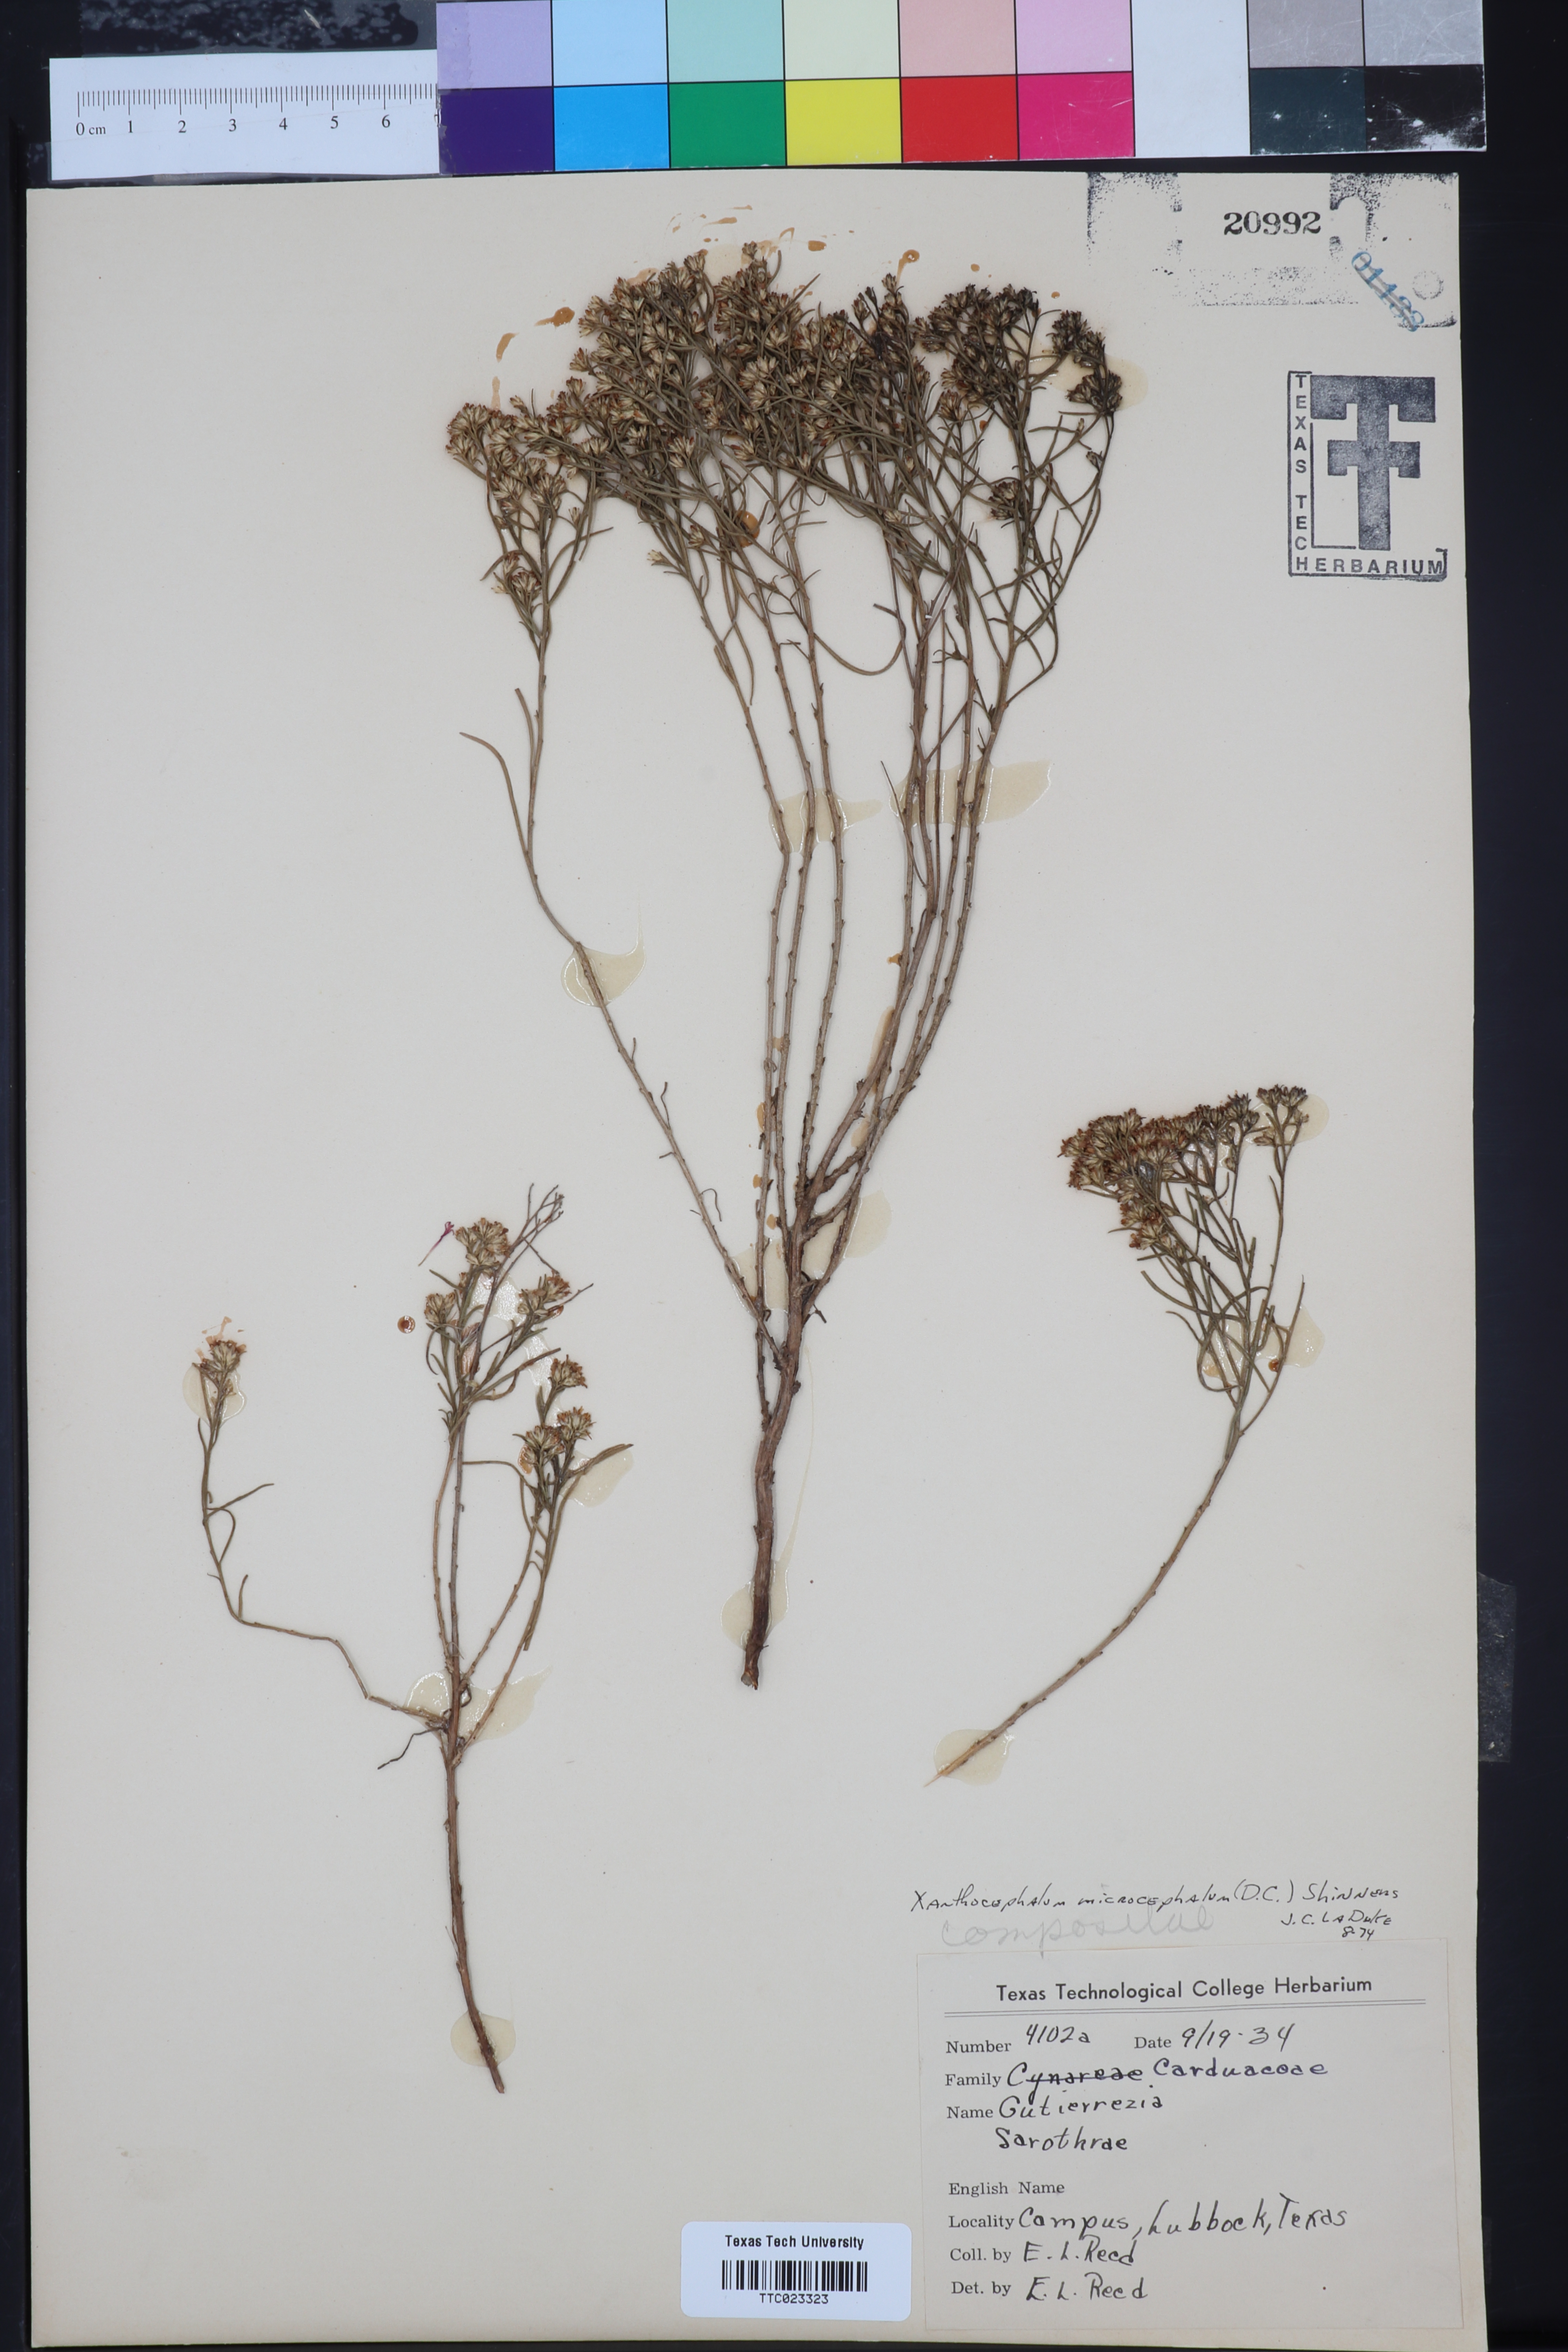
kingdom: Plantae
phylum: Tracheophyta
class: Magnoliopsida
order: Asterales
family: Asteraceae
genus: Gutierrezia
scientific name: Gutierrezia microcephala
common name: Thread snakeweed
